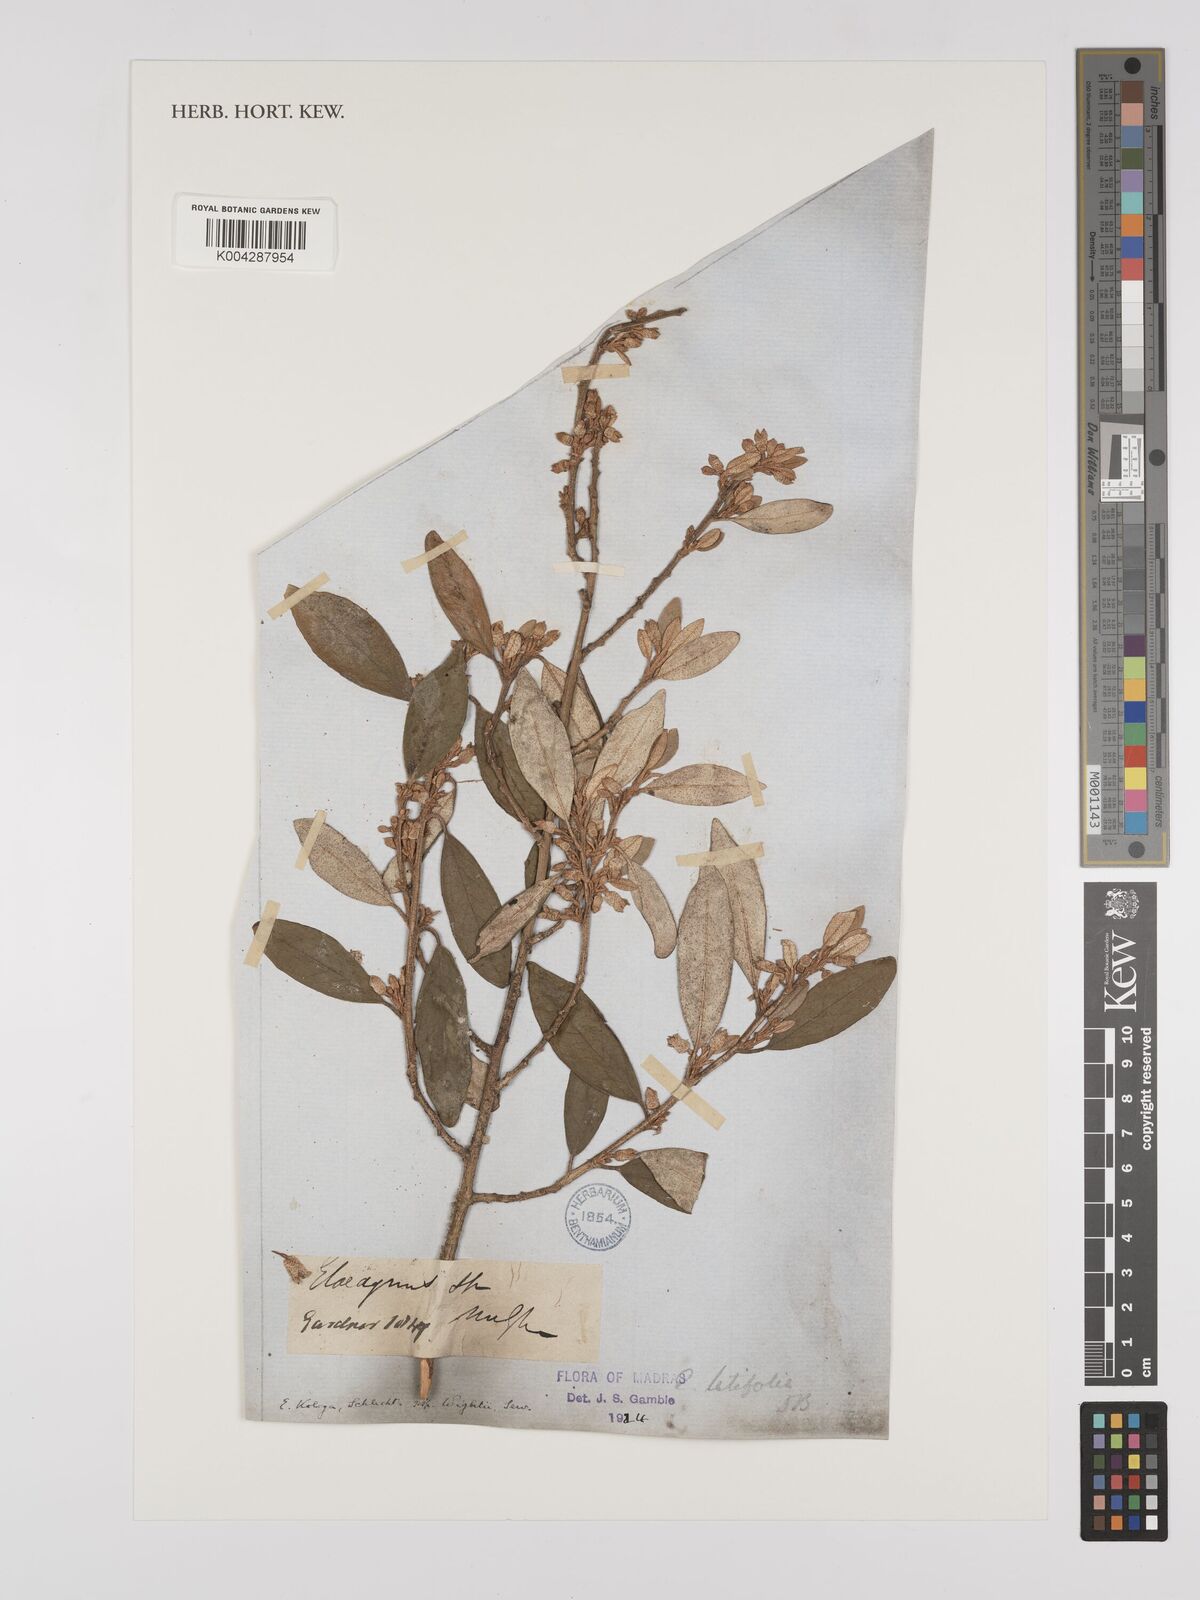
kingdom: Plantae
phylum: Tracheophyta
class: Magnoliopsida
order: Rosales
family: Elaeagnaceae
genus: Elaeagnus
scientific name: Elaeagnus latifolia
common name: Oleaster
